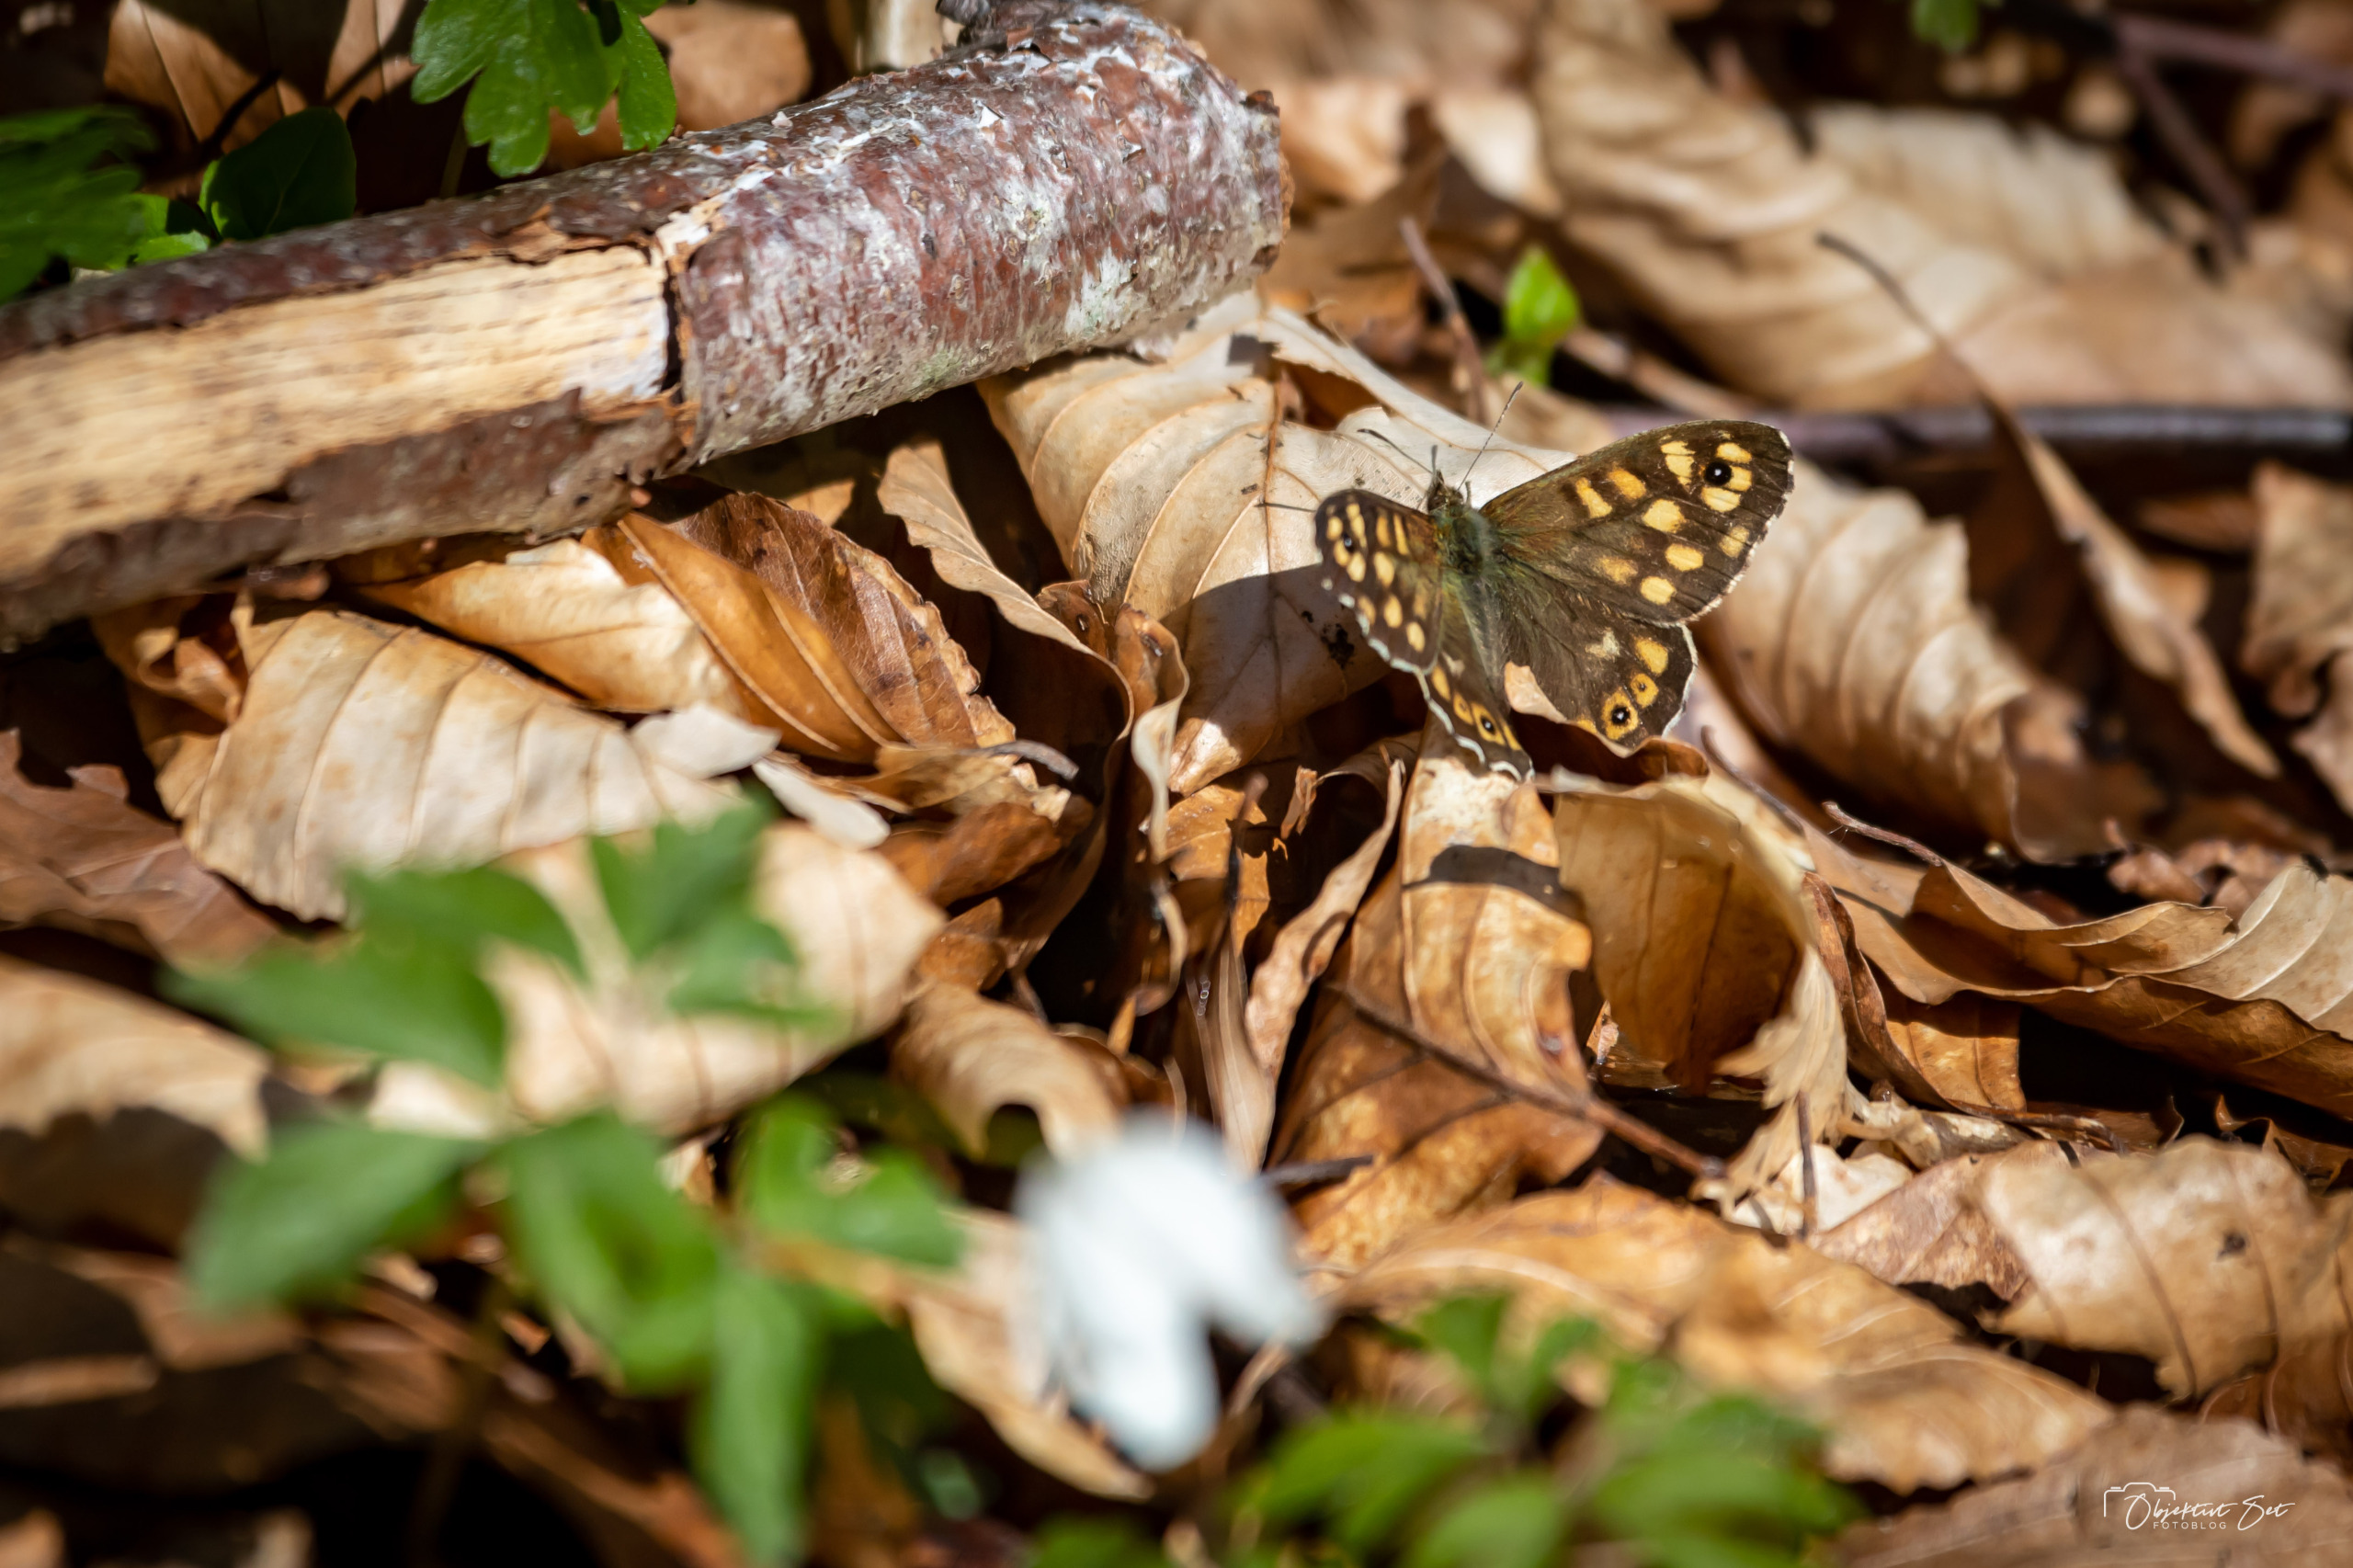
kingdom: Animalia
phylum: Arthropoda
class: Insecta
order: Lepidoptera
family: Nymphalidae
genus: Pararge
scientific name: Pararge aegeria
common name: Skovrandøje
